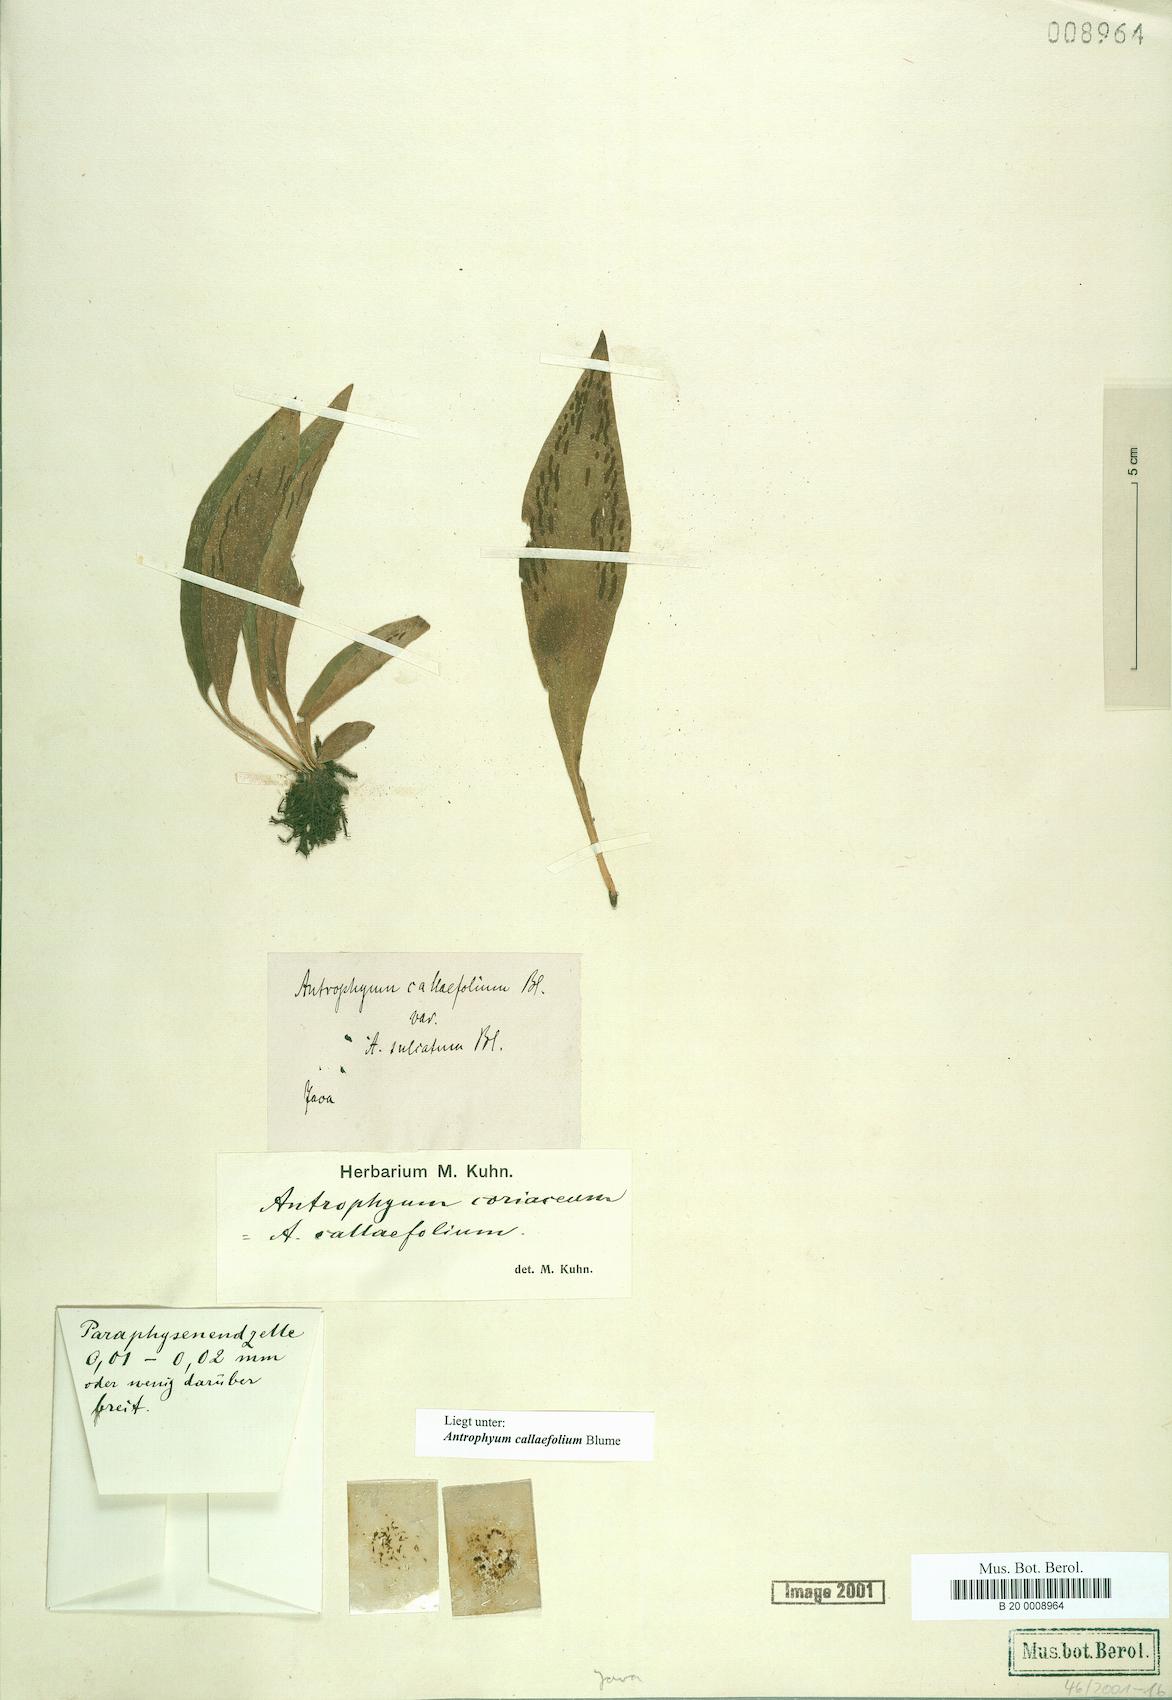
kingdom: Plantae
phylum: Tracheophyta
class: Polypodiopsida
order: Polypodiales
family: Pteridaceae
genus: Antrophyum
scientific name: Antrophyum callifolium
